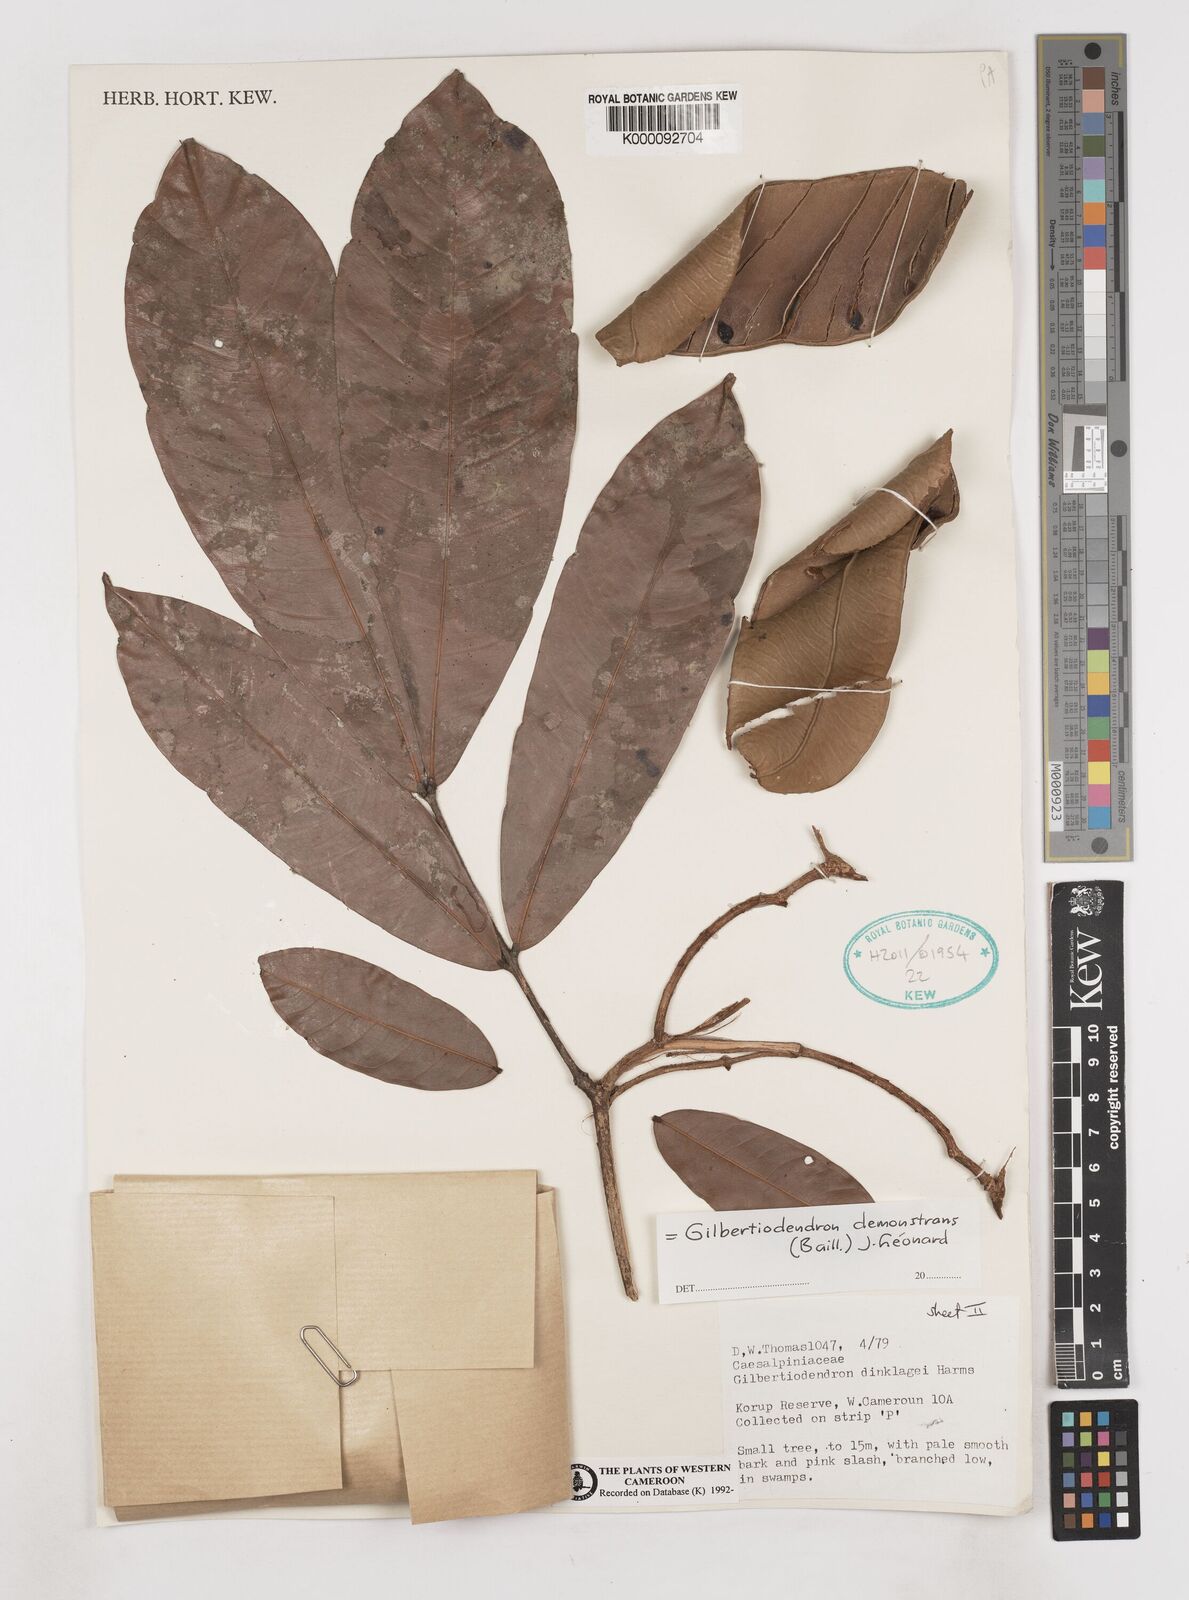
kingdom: Plantae
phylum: Tracheophyta
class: Magnoliopsida
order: Fabales
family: Fabaceae
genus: Gilbertiodendron
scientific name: Gilbertiodendron demonstrans
